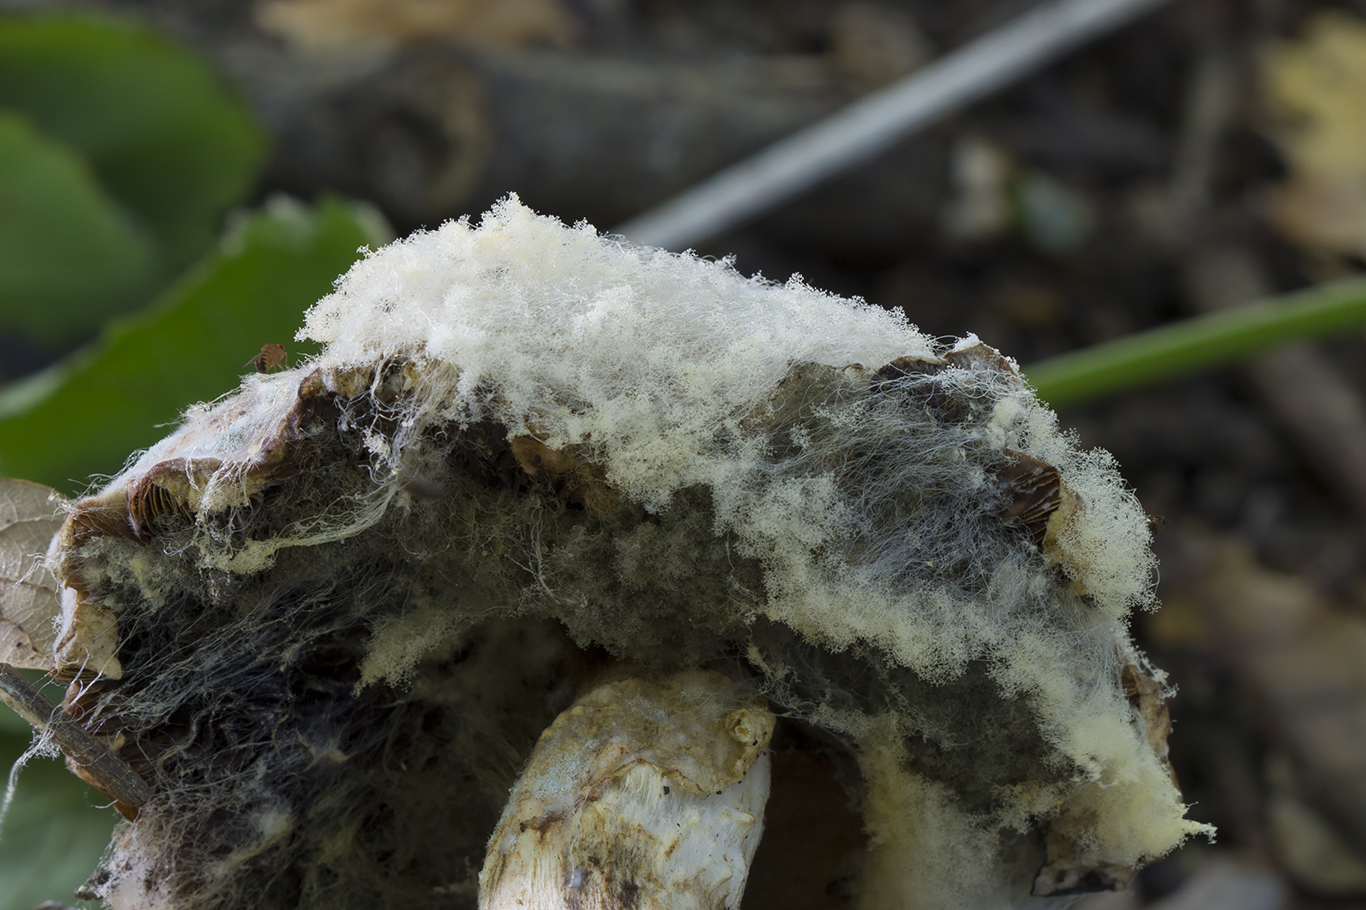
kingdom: Fungi
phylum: Mucoromycota
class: Mucoromycetes
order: Mucorales
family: Rhizopodaceae
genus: Syzygites
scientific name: Syzygites megalocarpus
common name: nissenål
